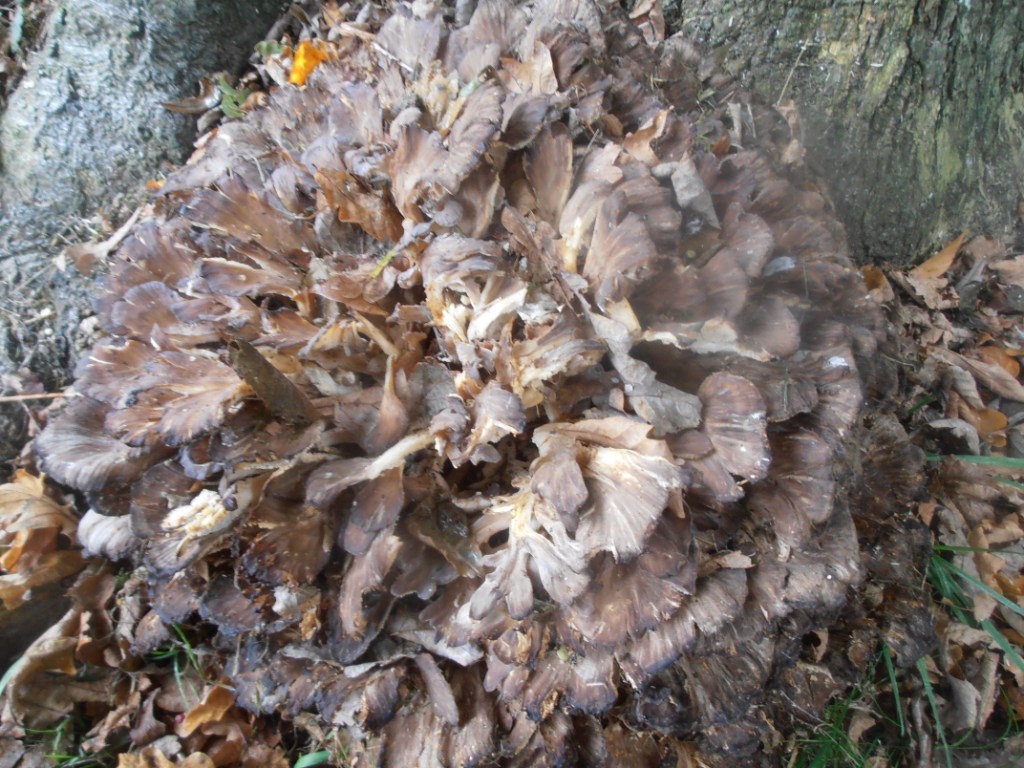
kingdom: Fungi
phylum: Basidiomycota
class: Agaricomycetes
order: Polyporales
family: Grifolaceae
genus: Grifola
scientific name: Grifola frondosa
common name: tueporesvamp
